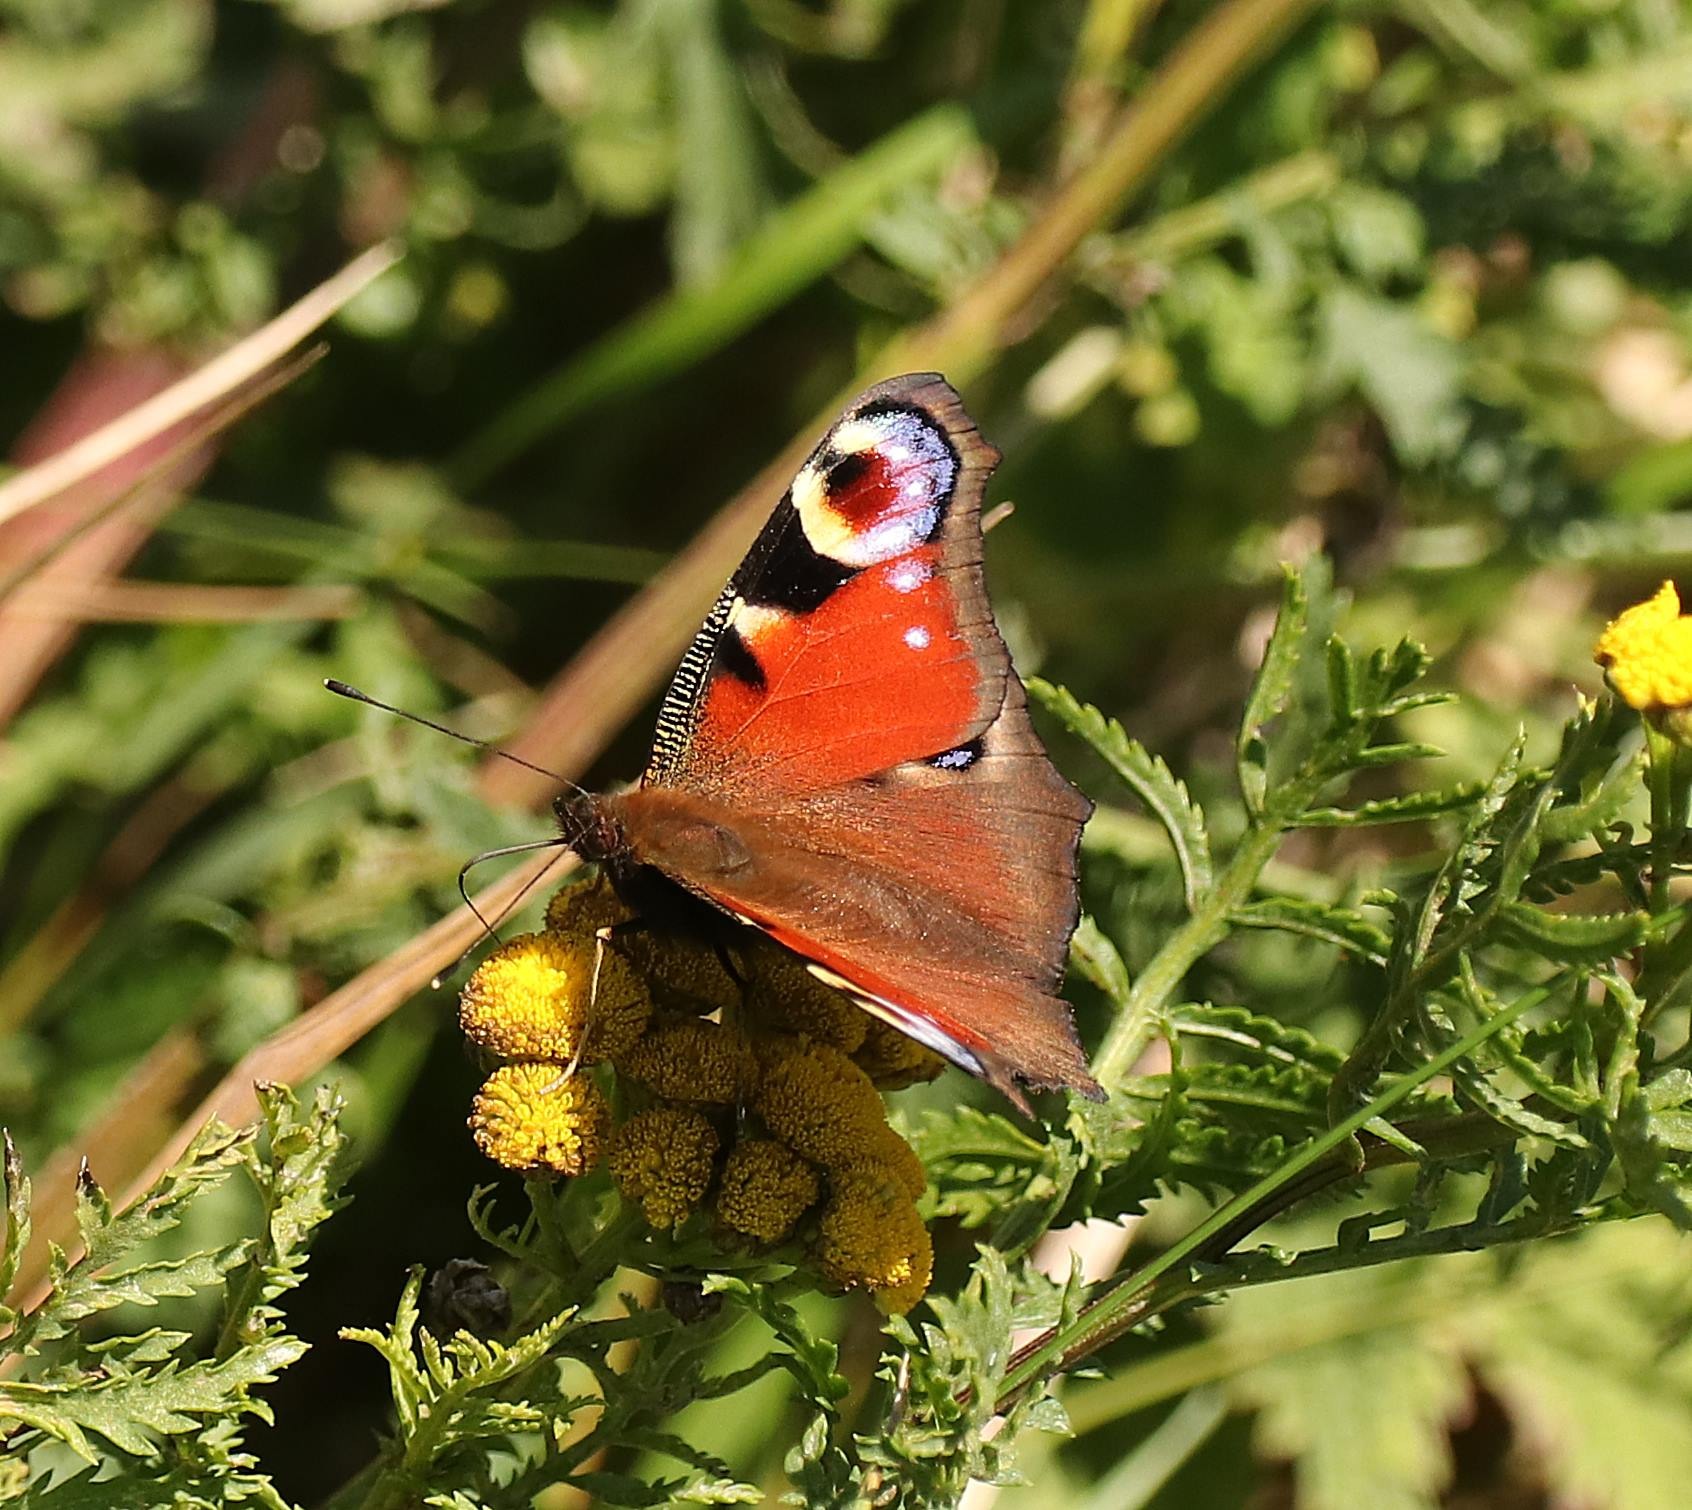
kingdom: Animalia
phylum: Arthropoda
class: Insecta
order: Lepidoptera
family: Nymphalidae
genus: Aglais
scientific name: Aglais io
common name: Dagpåfugleøje
